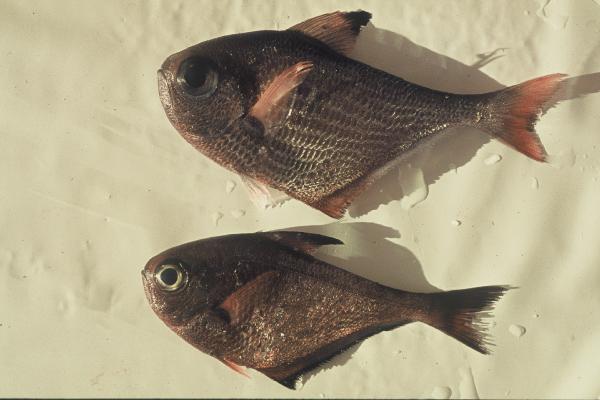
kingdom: Animalia
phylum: Chordata
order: Perciformes
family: Pempheridae
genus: Pempheris
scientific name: Pempheris
